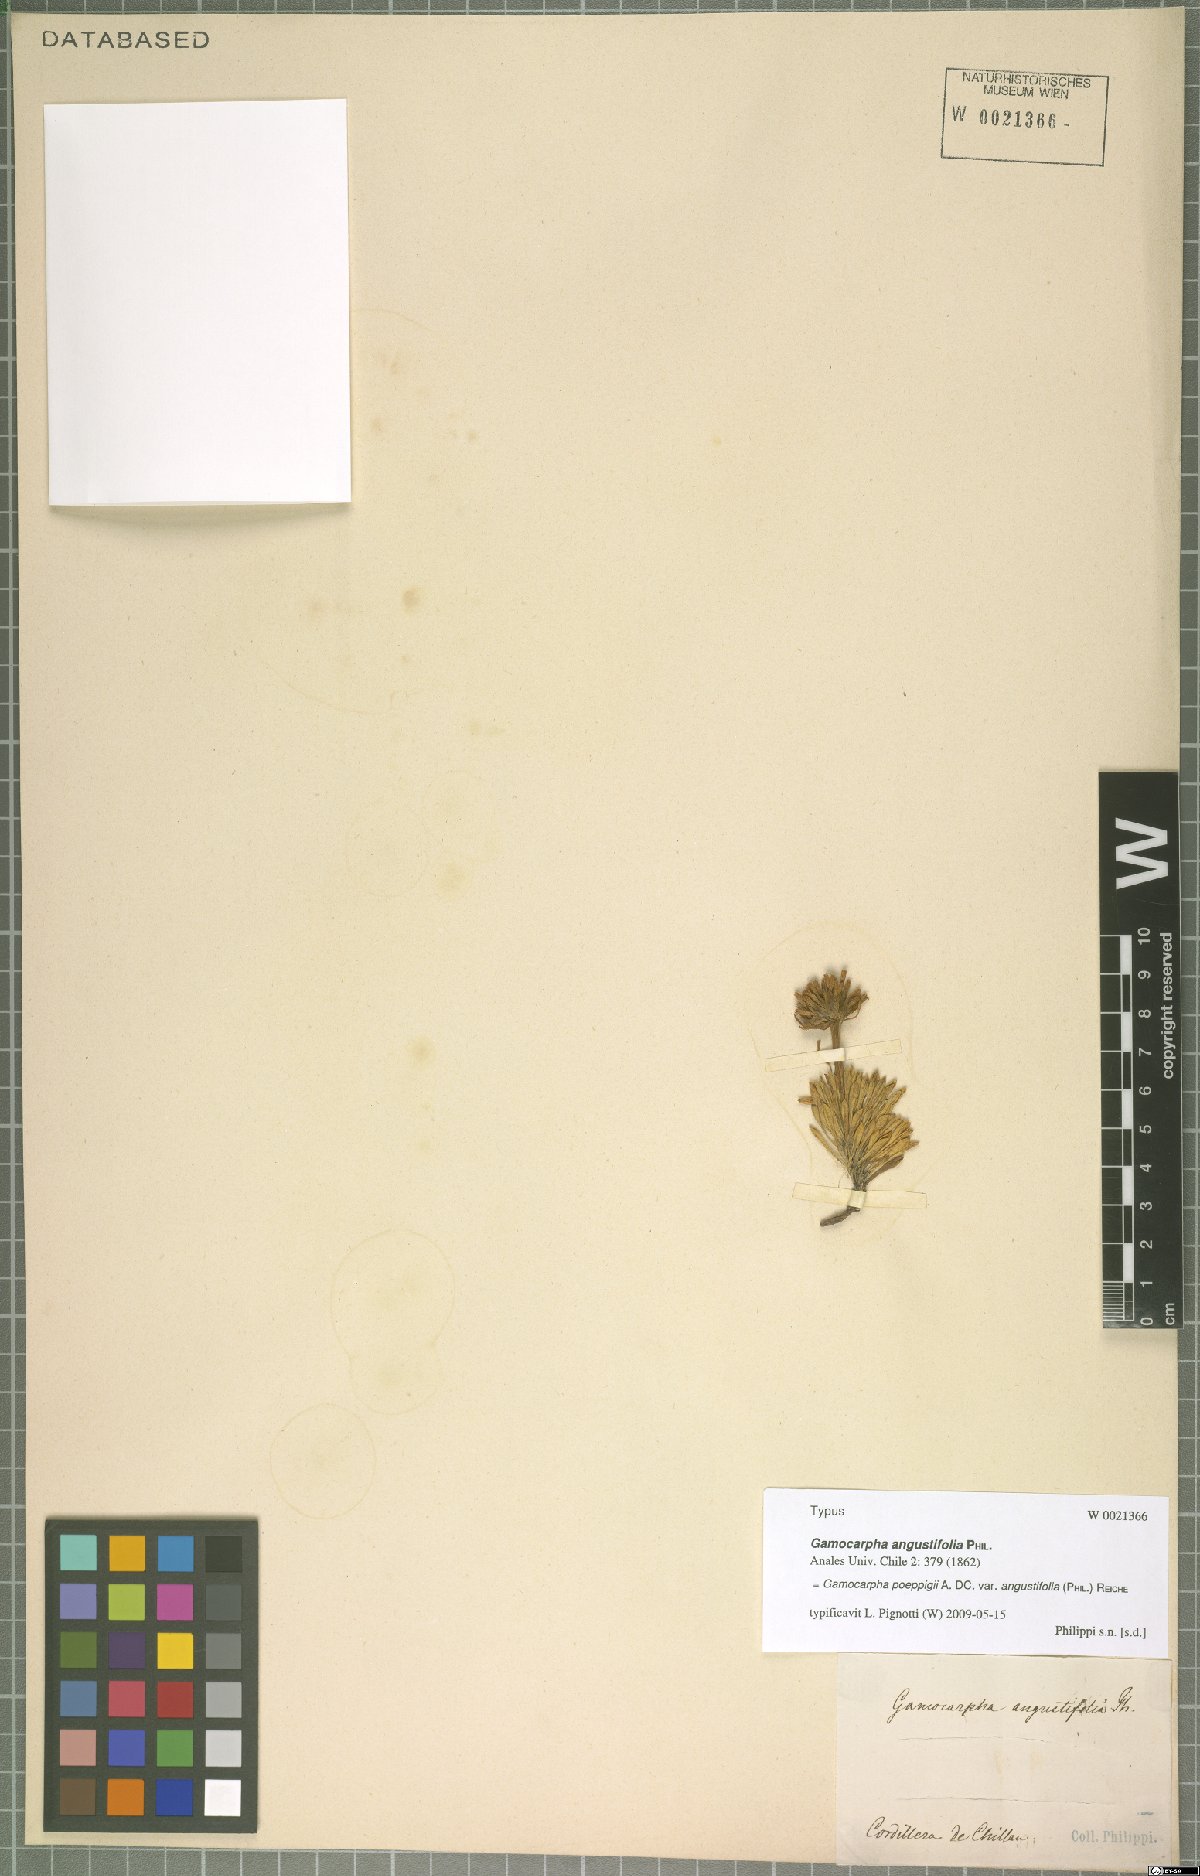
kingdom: Plantae
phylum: Tracheophyta
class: Magnoliopsida
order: Asterales
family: Calyceraceae
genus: Moschopsis
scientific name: Moschopsis angustifolia
